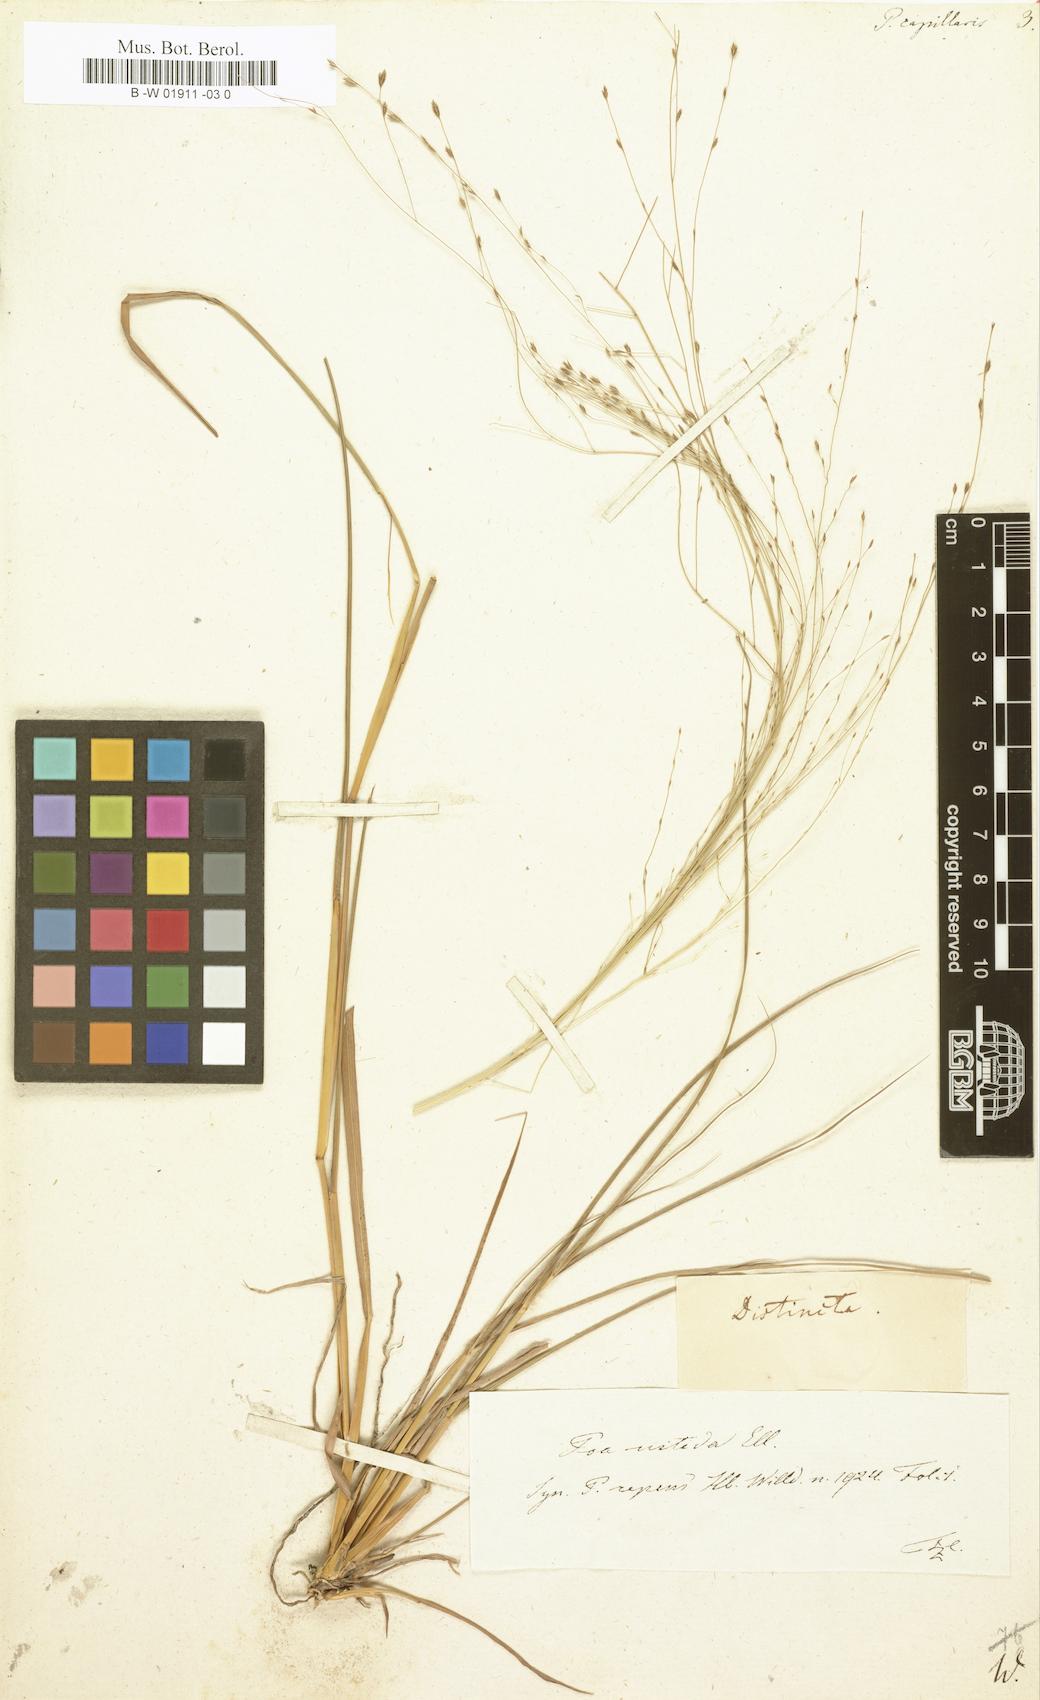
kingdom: Plantae
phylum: Tracheophyta
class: Liliopsida
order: Poales
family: Poaceae
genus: Poa
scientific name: Poa capillaris
